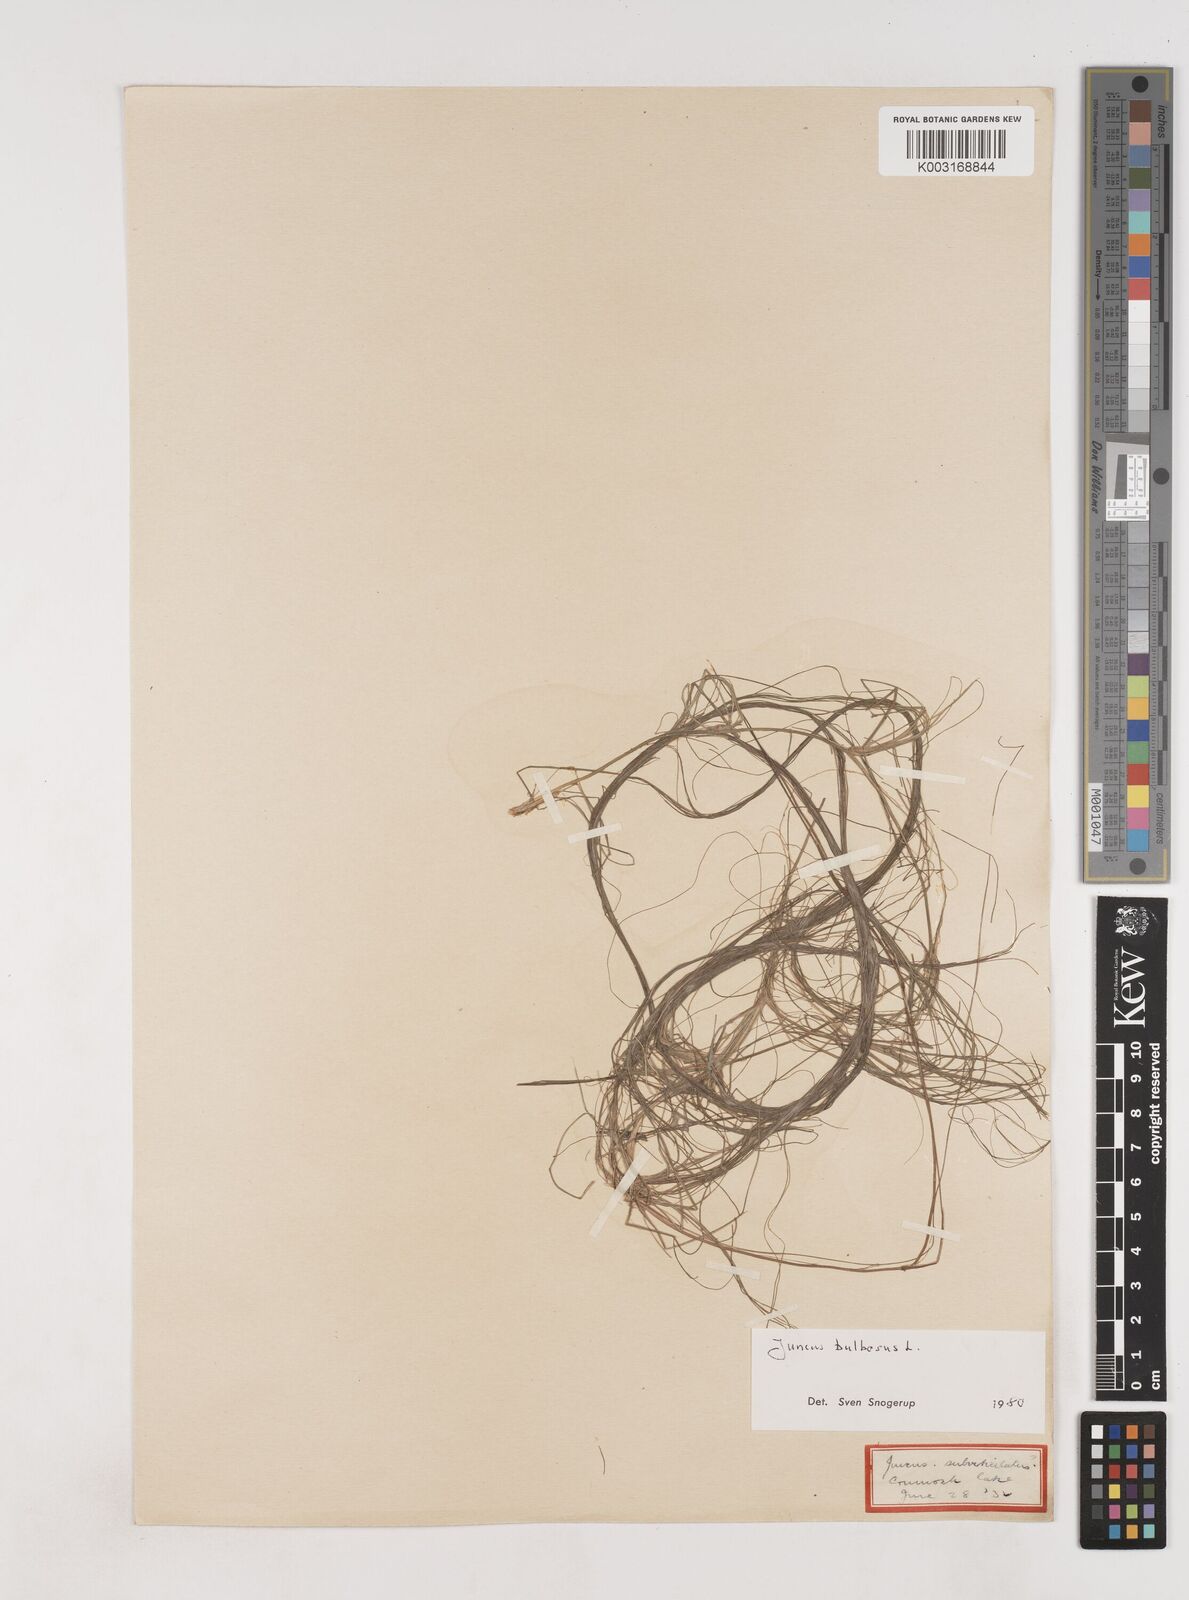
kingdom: Plantae
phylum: Tracheophyta
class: Liliopsida
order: Poales
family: Juncaceae
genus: Juncus
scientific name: Juncus bulbosus
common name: Bulbous rush
